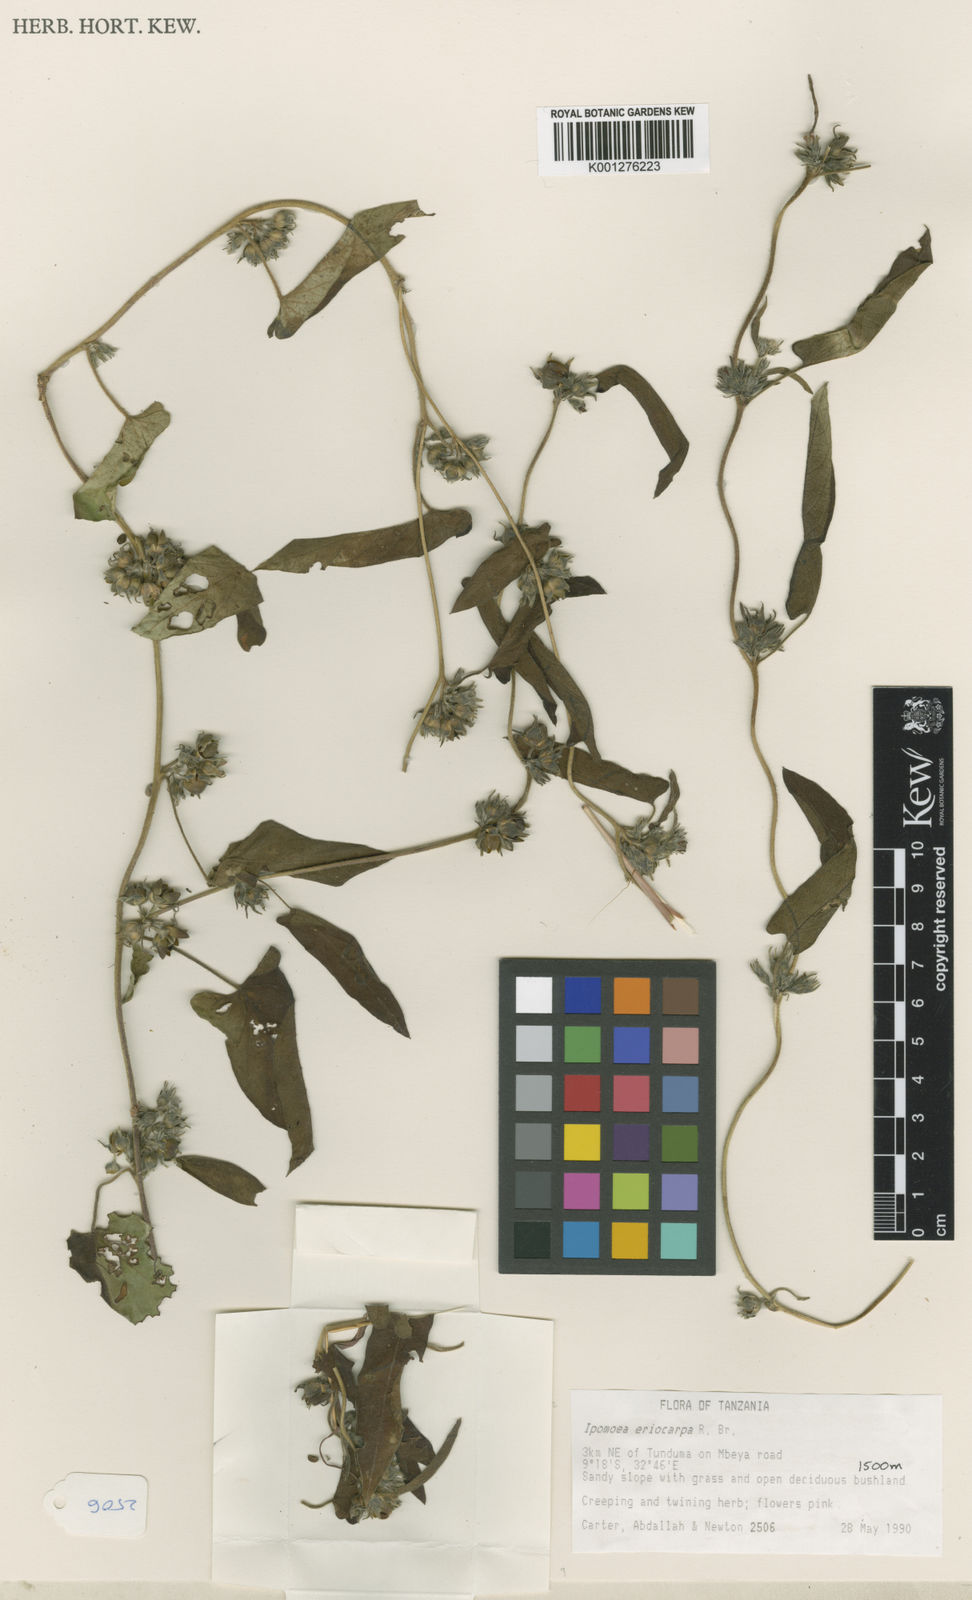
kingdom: Plantae
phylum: Tracheophyta
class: Magnoliopsida
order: Solanales
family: Convolvulaceae
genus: Ipomoea
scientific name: Ipomoea eriocarpa
